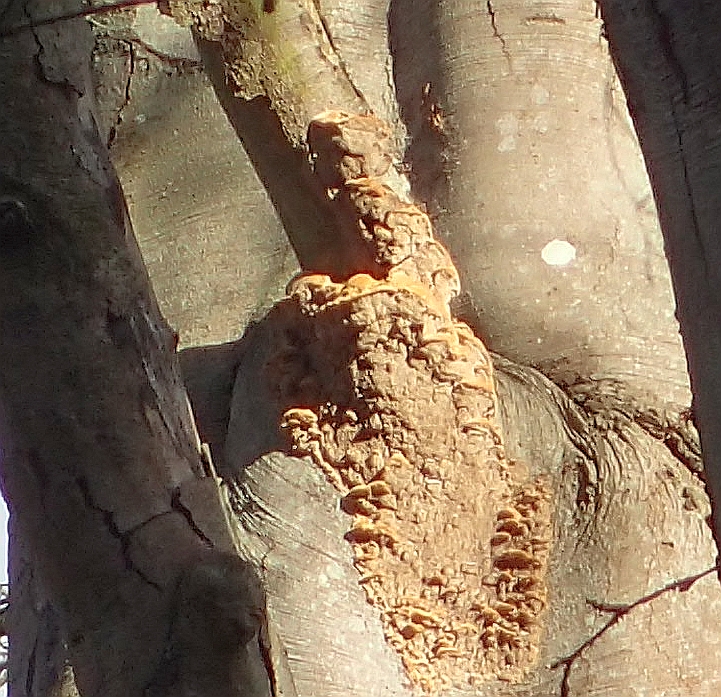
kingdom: Fungi
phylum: Basidiomycota
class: Agaricomycetes
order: Hymenochaetales
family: Hymenochaetaceae
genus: Mensularia
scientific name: Mensularia nodulosa
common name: bøge-spejlporesvamp
